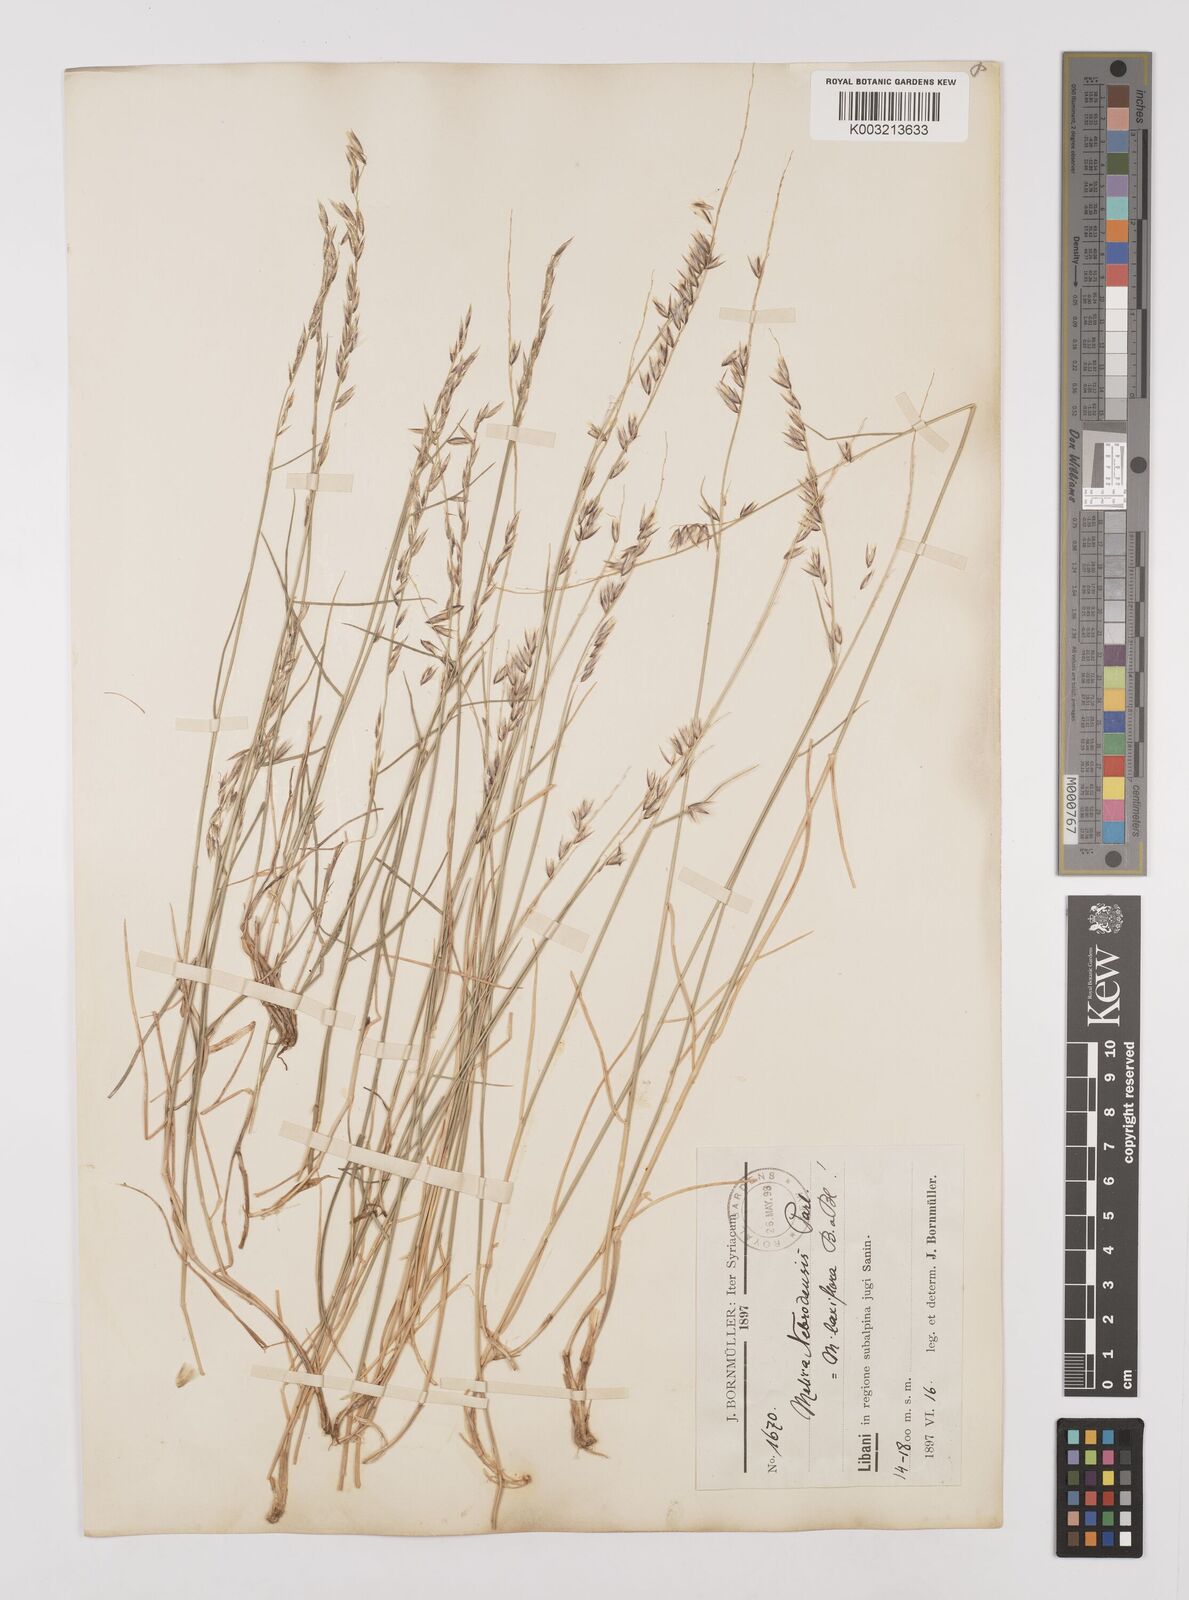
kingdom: Plantae
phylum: Tracheophyta
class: Liliopsida
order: Poales
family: Poaceae
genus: Melica
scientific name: Melica ciliata
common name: Hairy melicgrass
